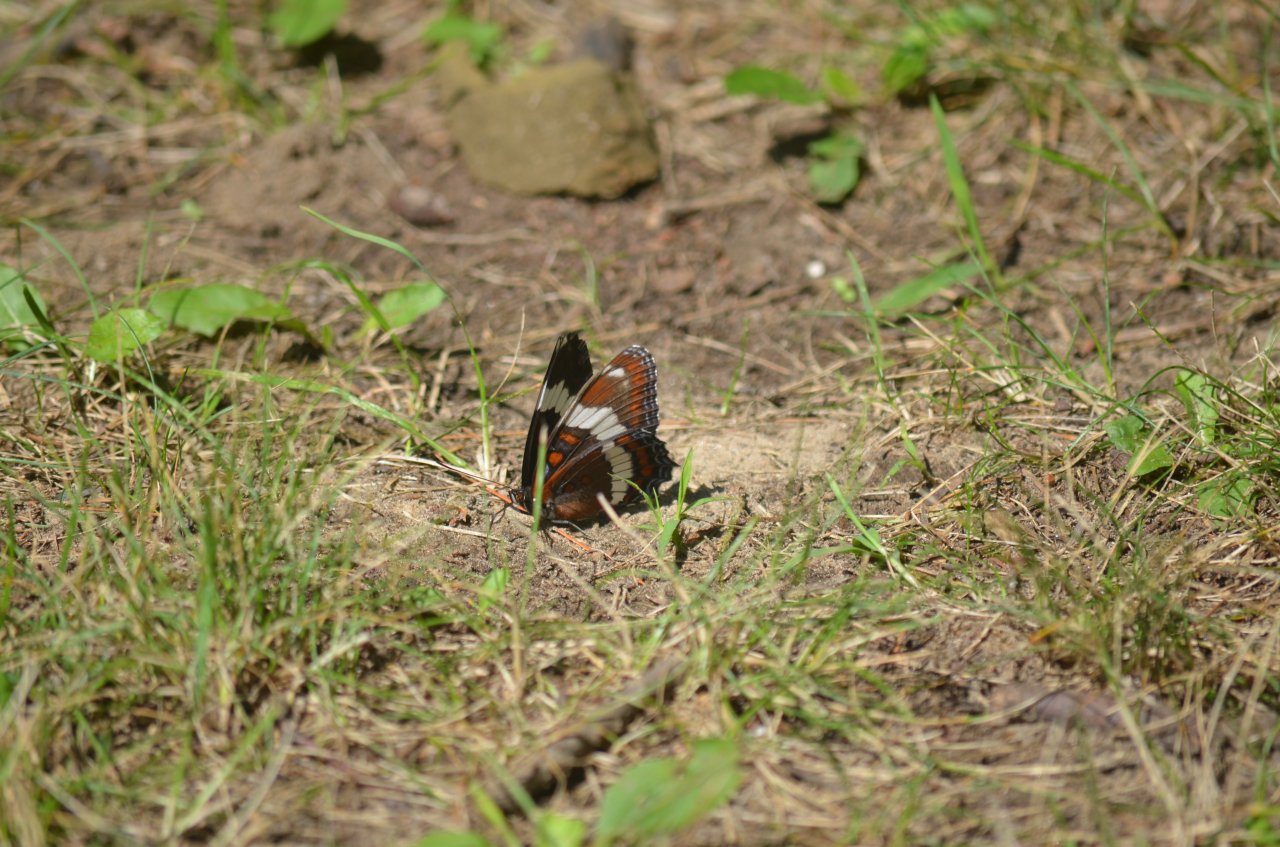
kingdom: Animalia
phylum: Arthropoda
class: Insecta
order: Lepidoptera
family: Nymphalidae
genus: Limenitis
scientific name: Limenitis arthemis
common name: Red-spotted Admiral
